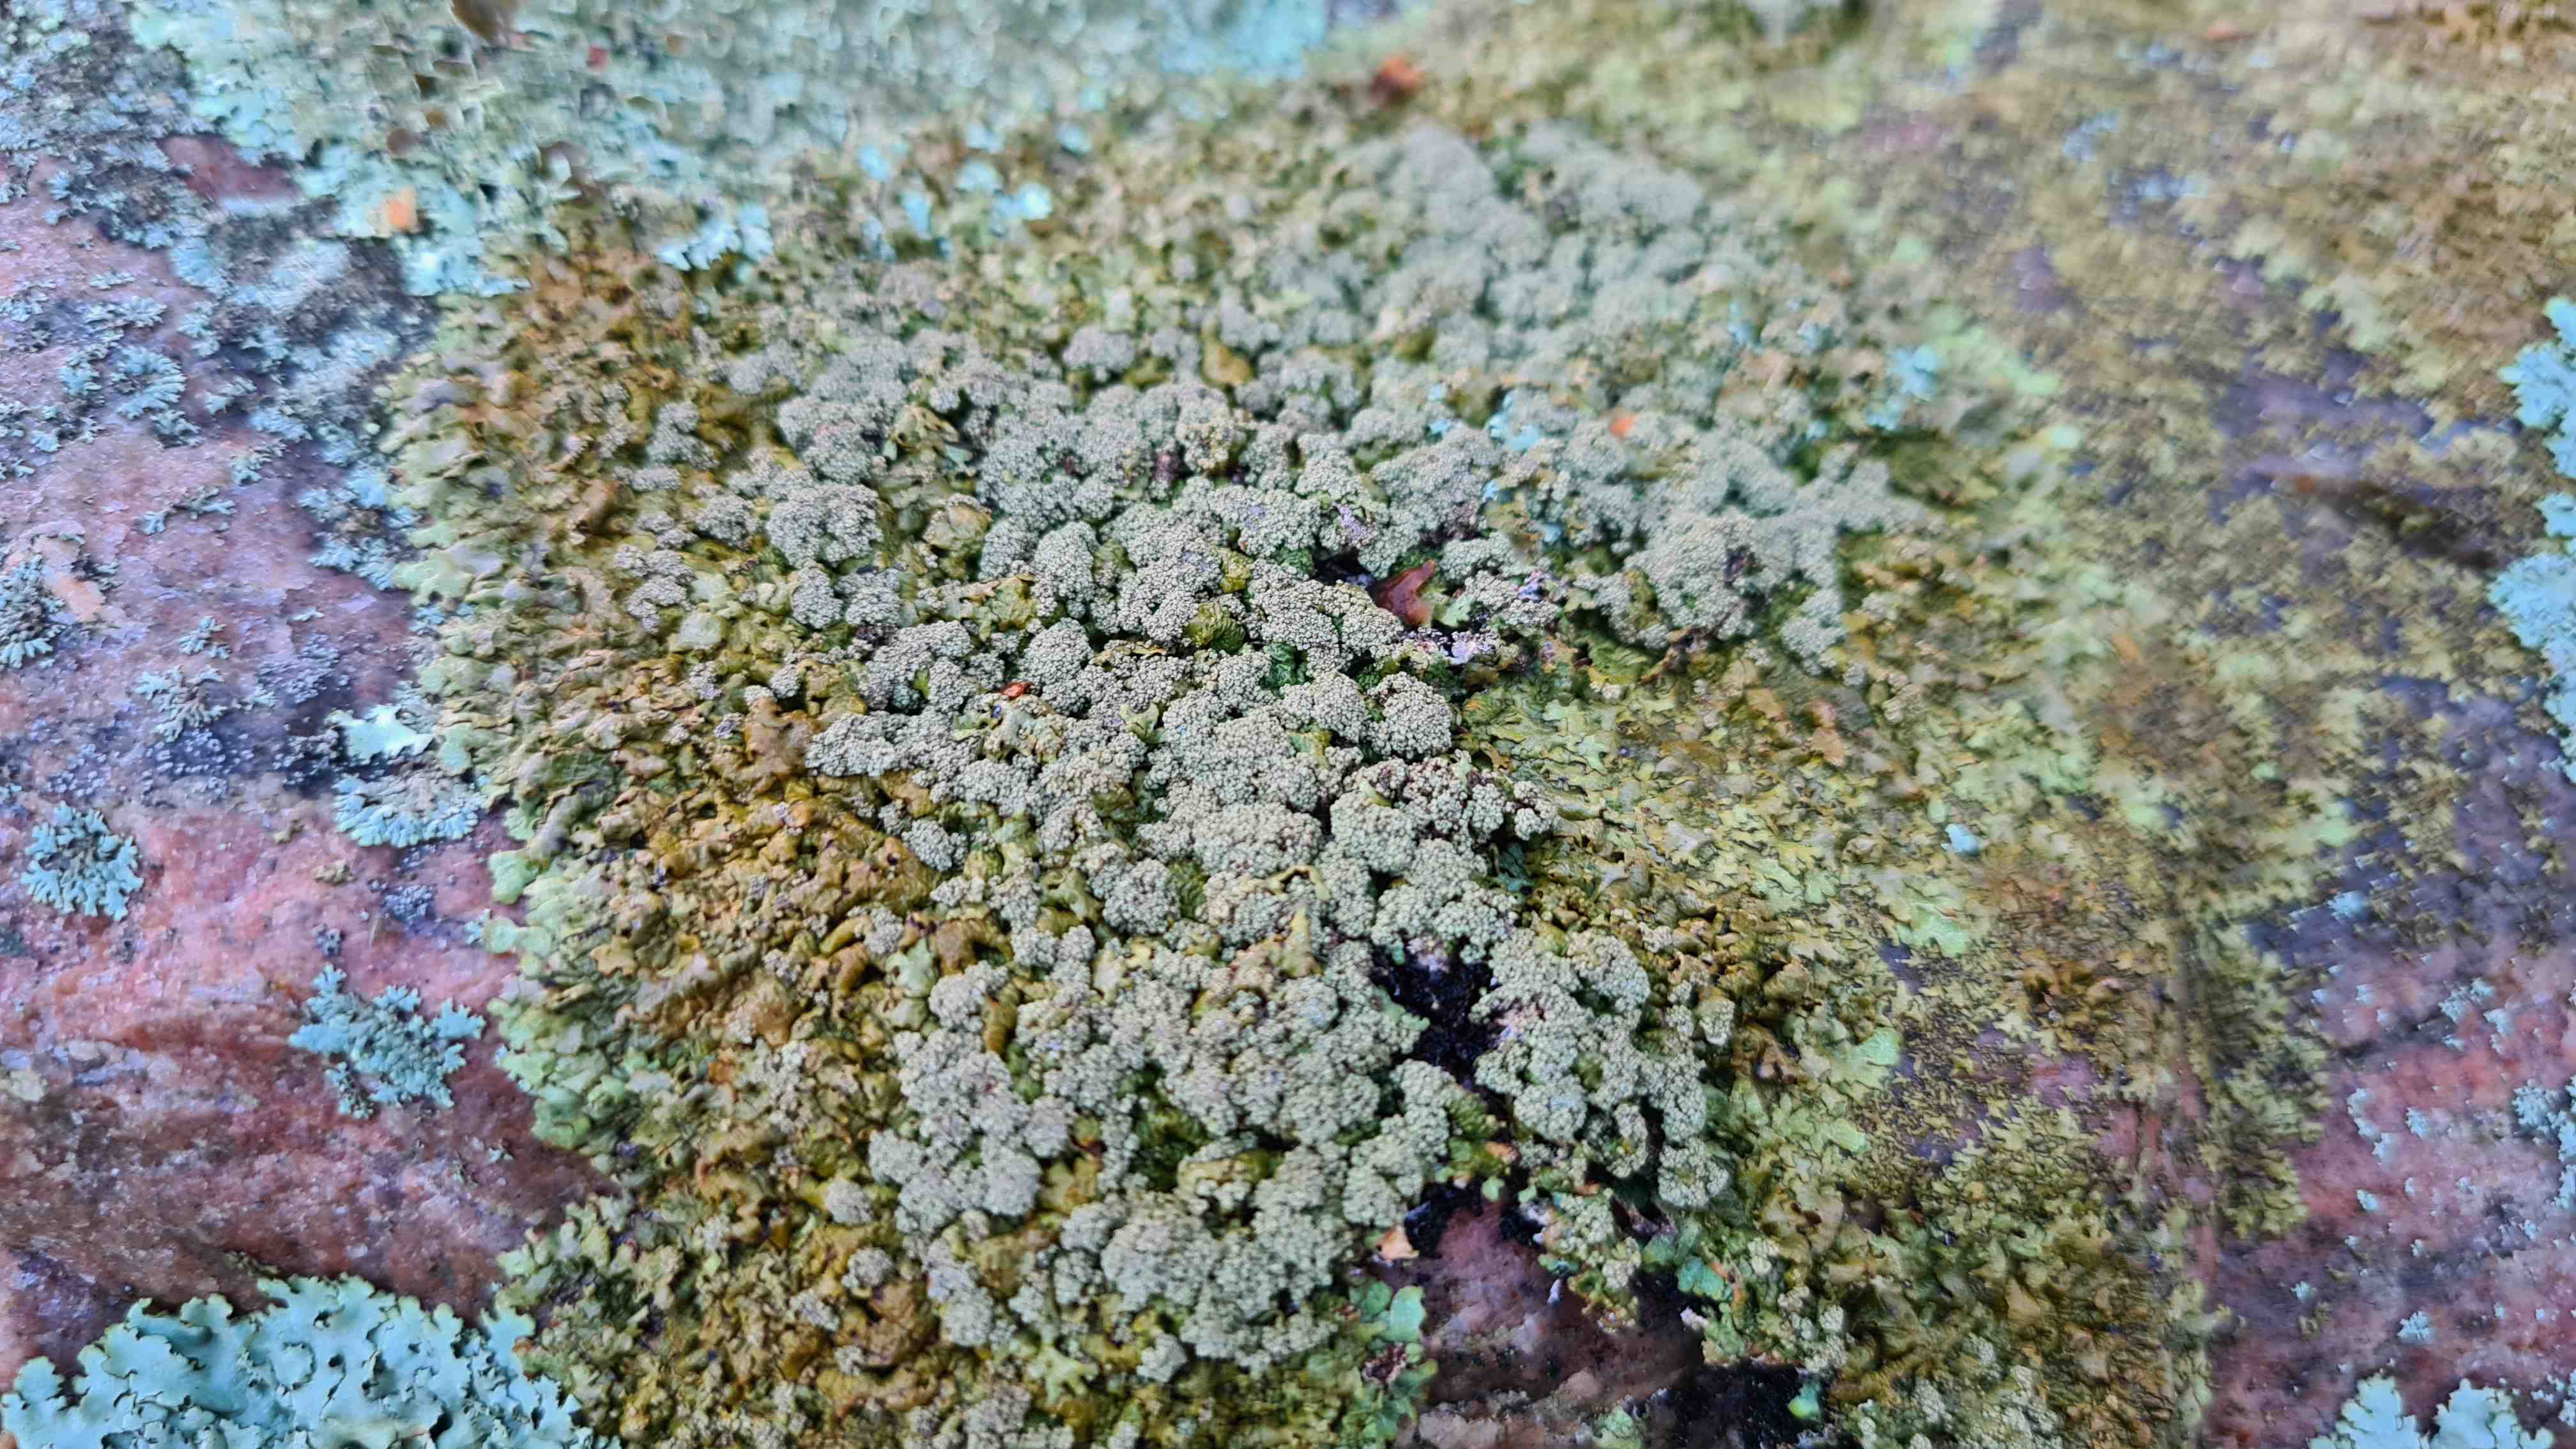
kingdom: Fungi
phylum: Ascomycota
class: Lecanoromycetes
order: Lecanorales
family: Parmeliaceae
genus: Xanthoparmelia
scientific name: Xanthoparmelia loxodes
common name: knudret skållav
